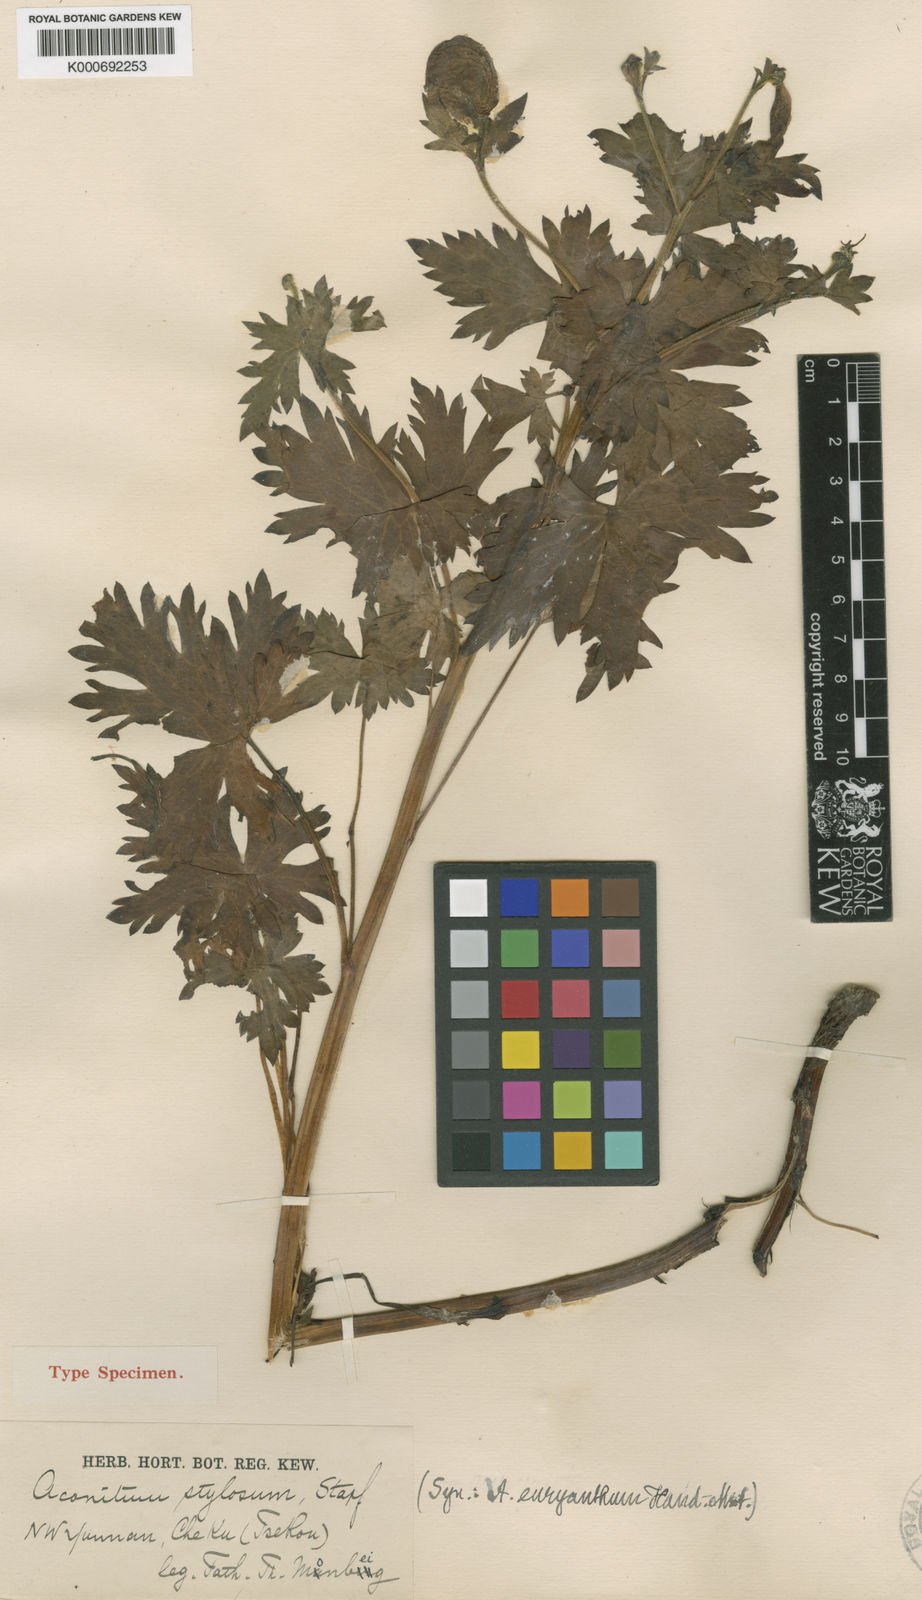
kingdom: Plantae
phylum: Tracheophyta
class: Magnoliopsida
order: Ranunculales
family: Ranunculaceae
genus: Aconitum
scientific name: Aconitum stylosum
